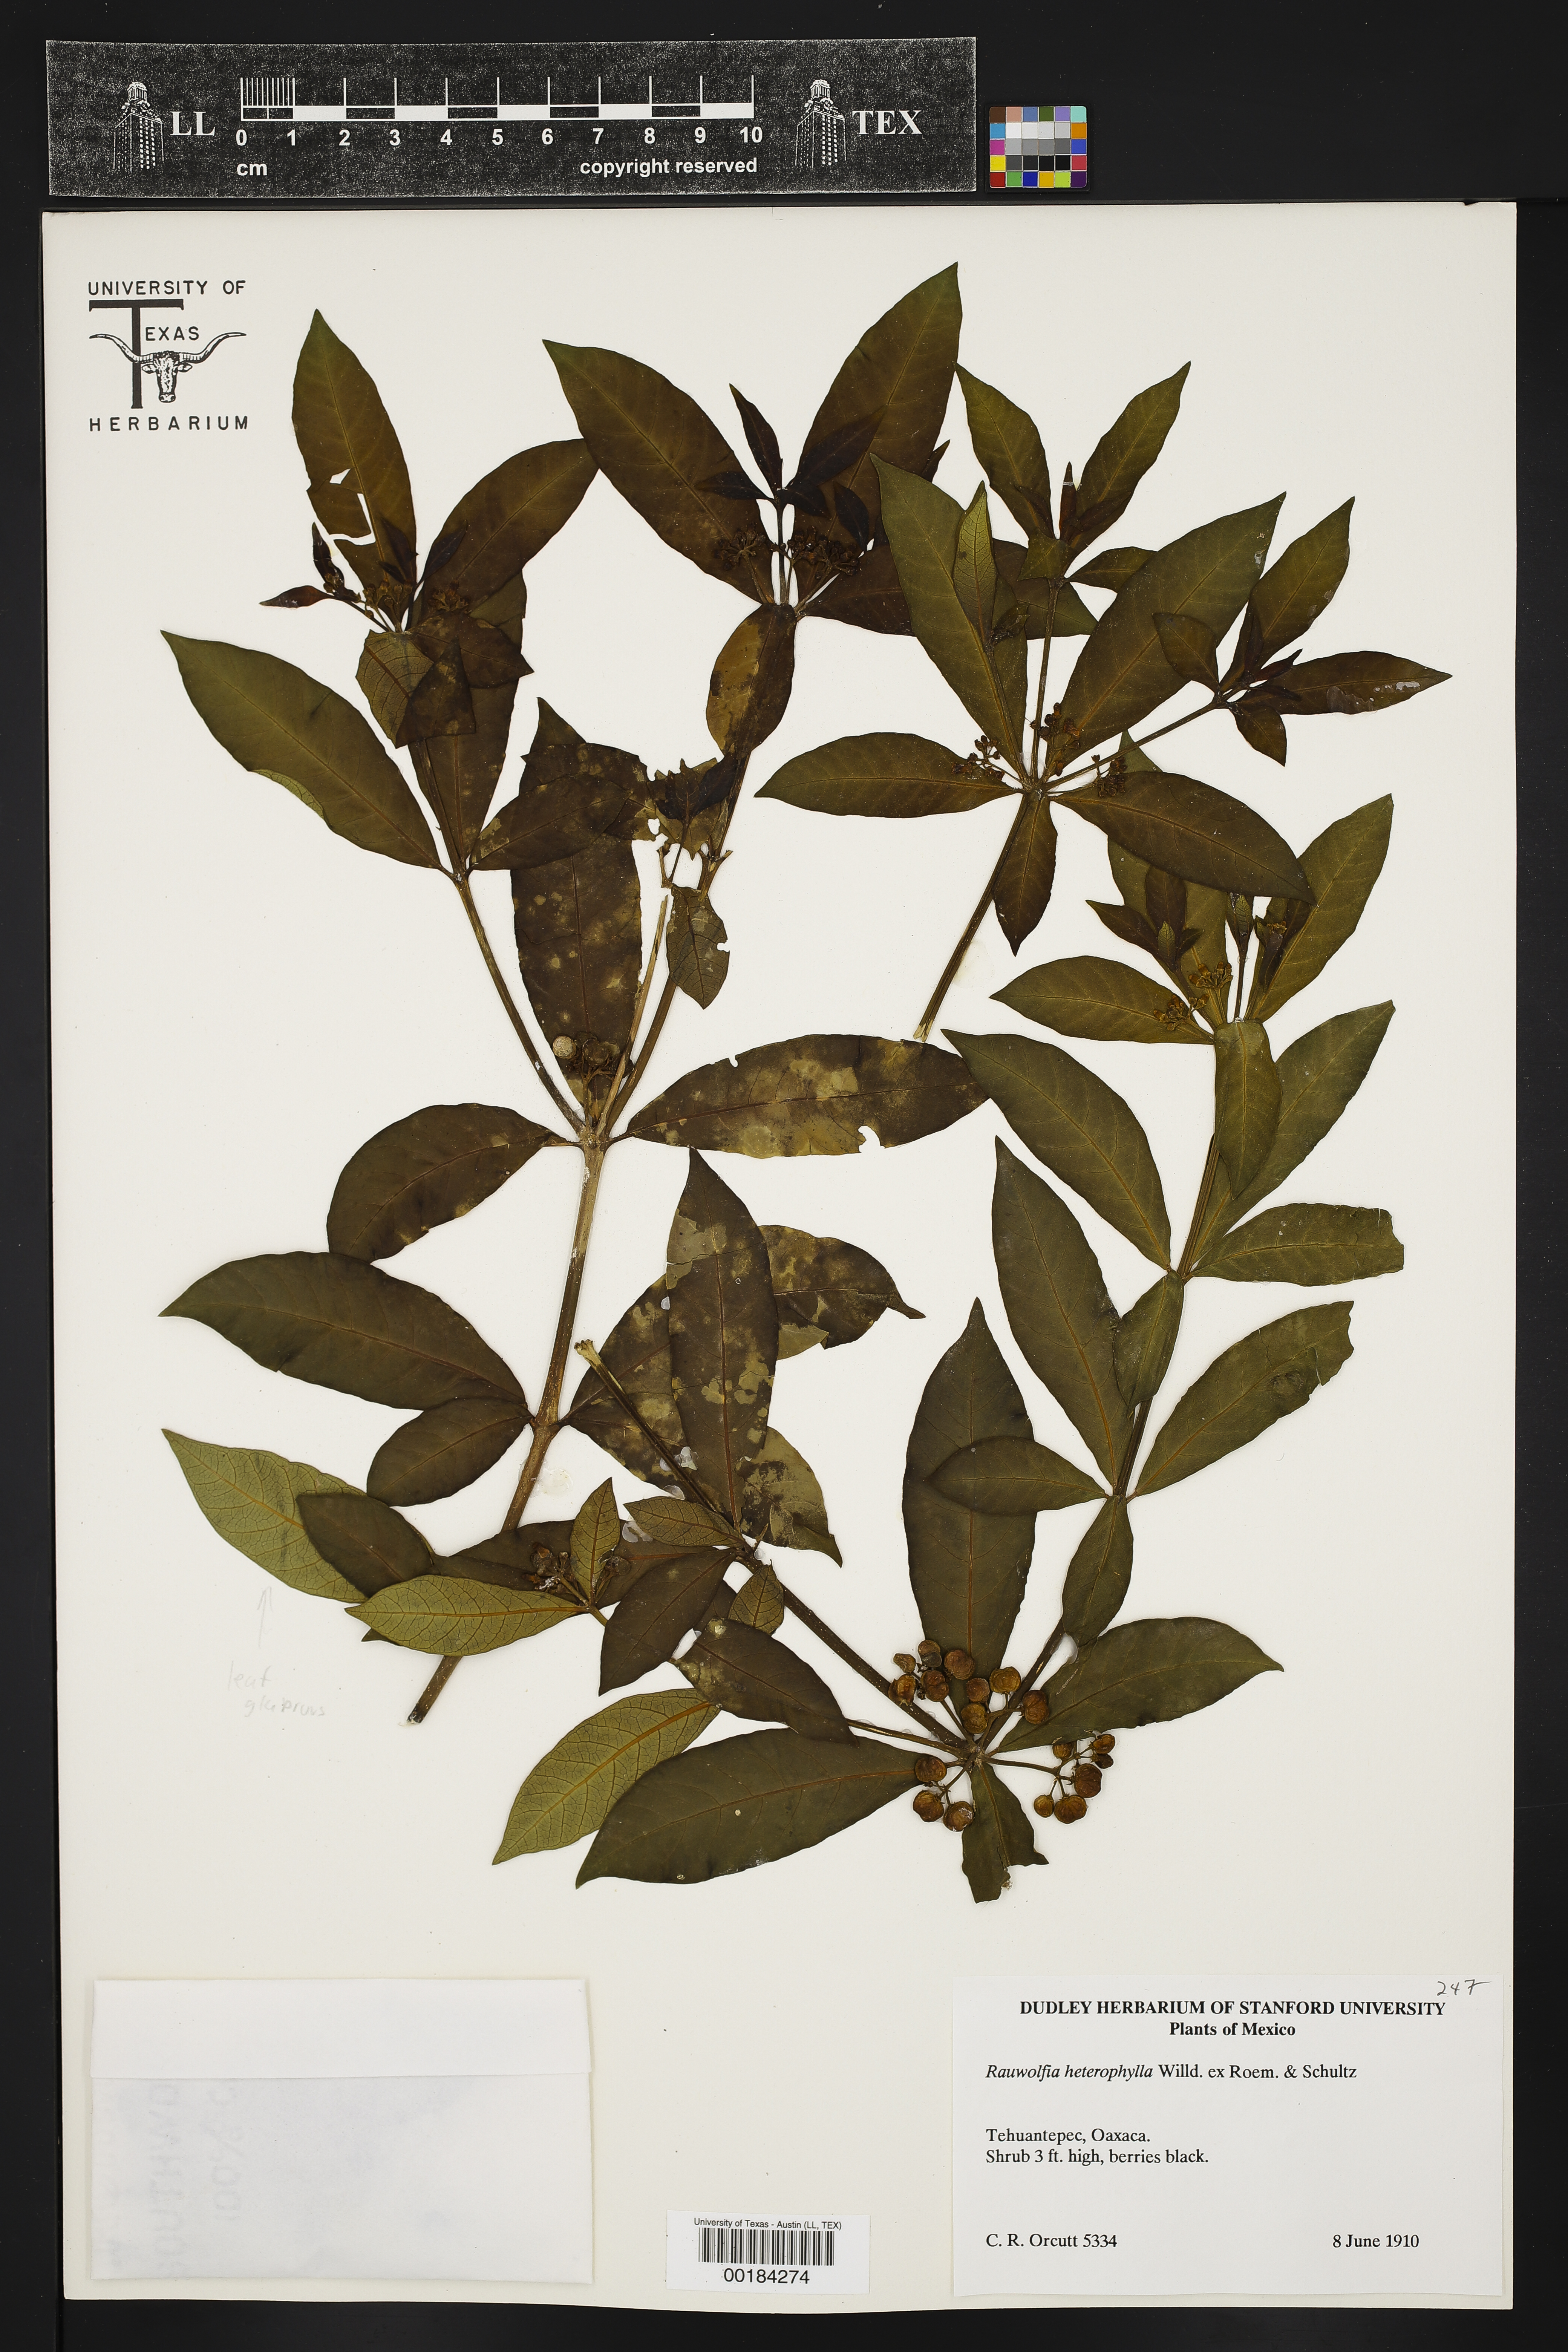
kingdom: Plantae
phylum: Tracheophyta
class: Magnoliopsida
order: Gentianales
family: Apocynaceae
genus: Tonduzia
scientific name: Tonduzia longifolia
